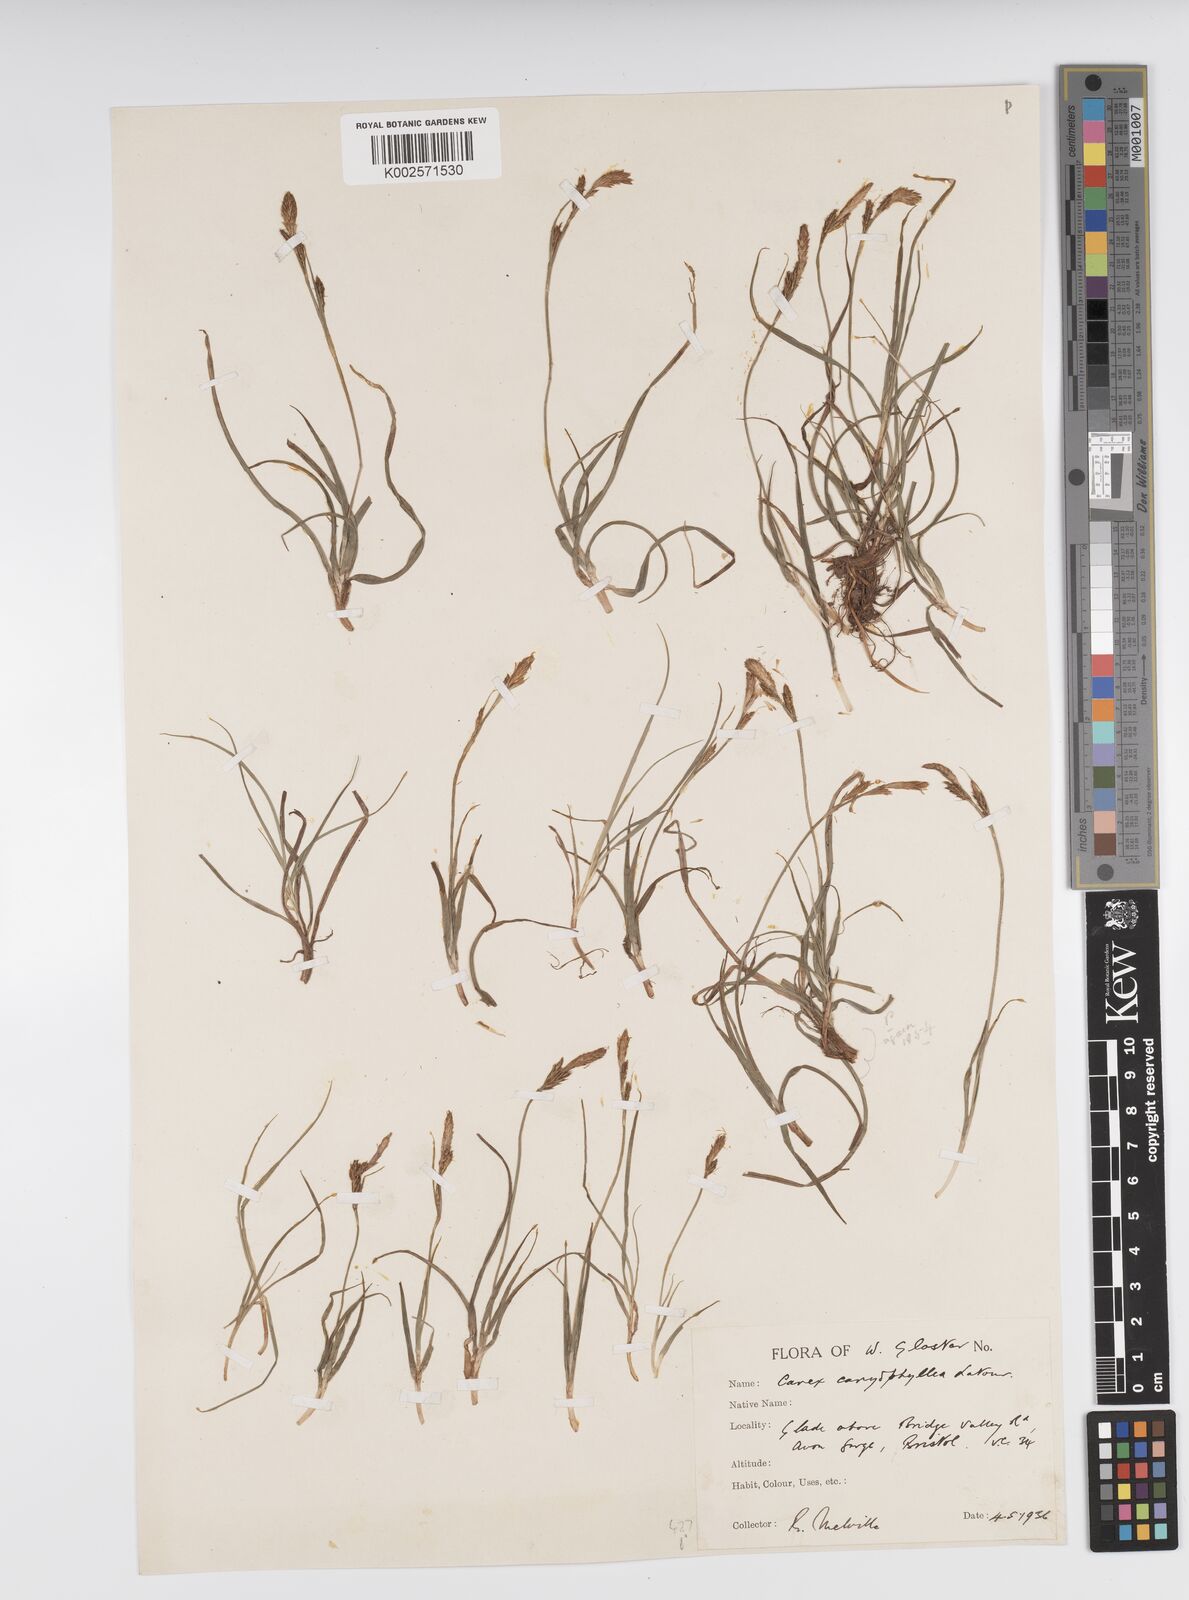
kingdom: Plantae
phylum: Tracheophyta
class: Liliopsida
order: Poales
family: Cyperaceae
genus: Carex
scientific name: Carex caryophyllea
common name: Spring sedge
